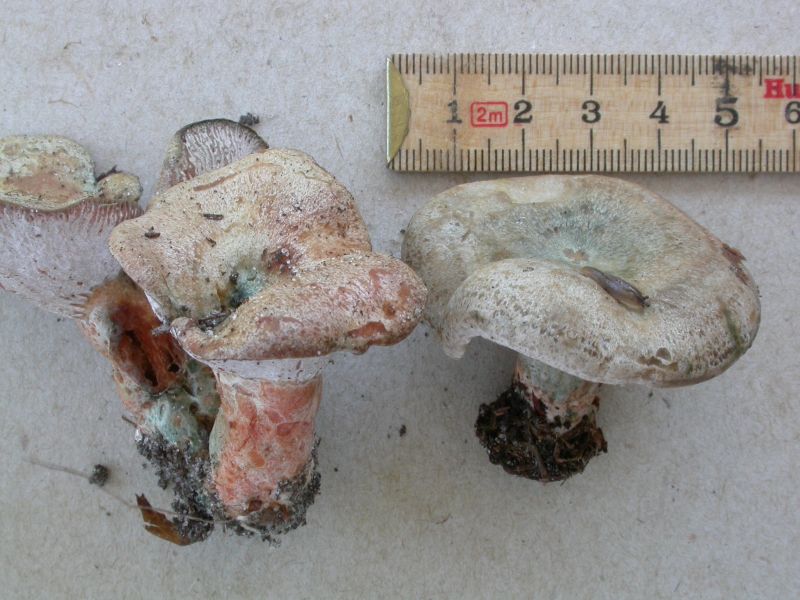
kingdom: Fungi
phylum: Basidiomycota
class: Agaricomycetes
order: Russulales
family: Russulaceae
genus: Lactarius
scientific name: Lactarius quieticolor
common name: tvefarvet mælkehat
